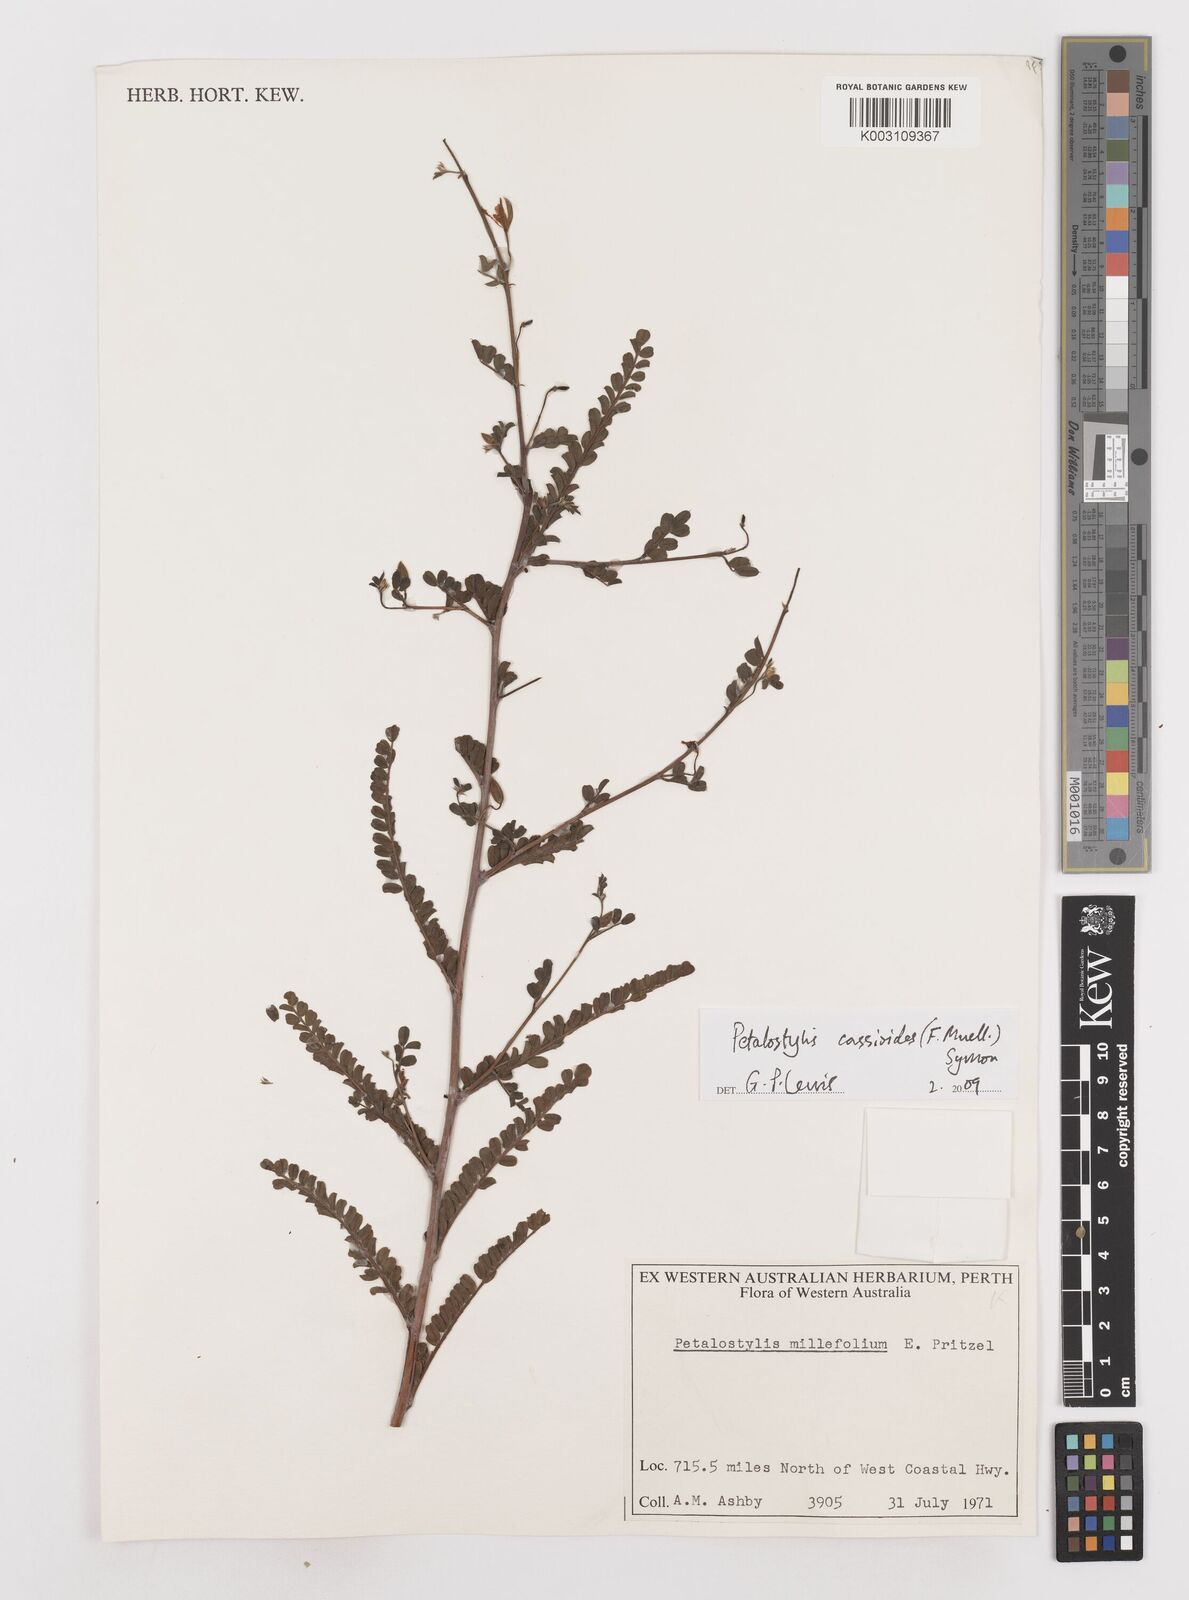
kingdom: Plantae
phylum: Tracheophyta
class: Magnoliopsida
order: Fabales
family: Fabaceae
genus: Petalostylis
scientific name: Petalostylis cassioides
